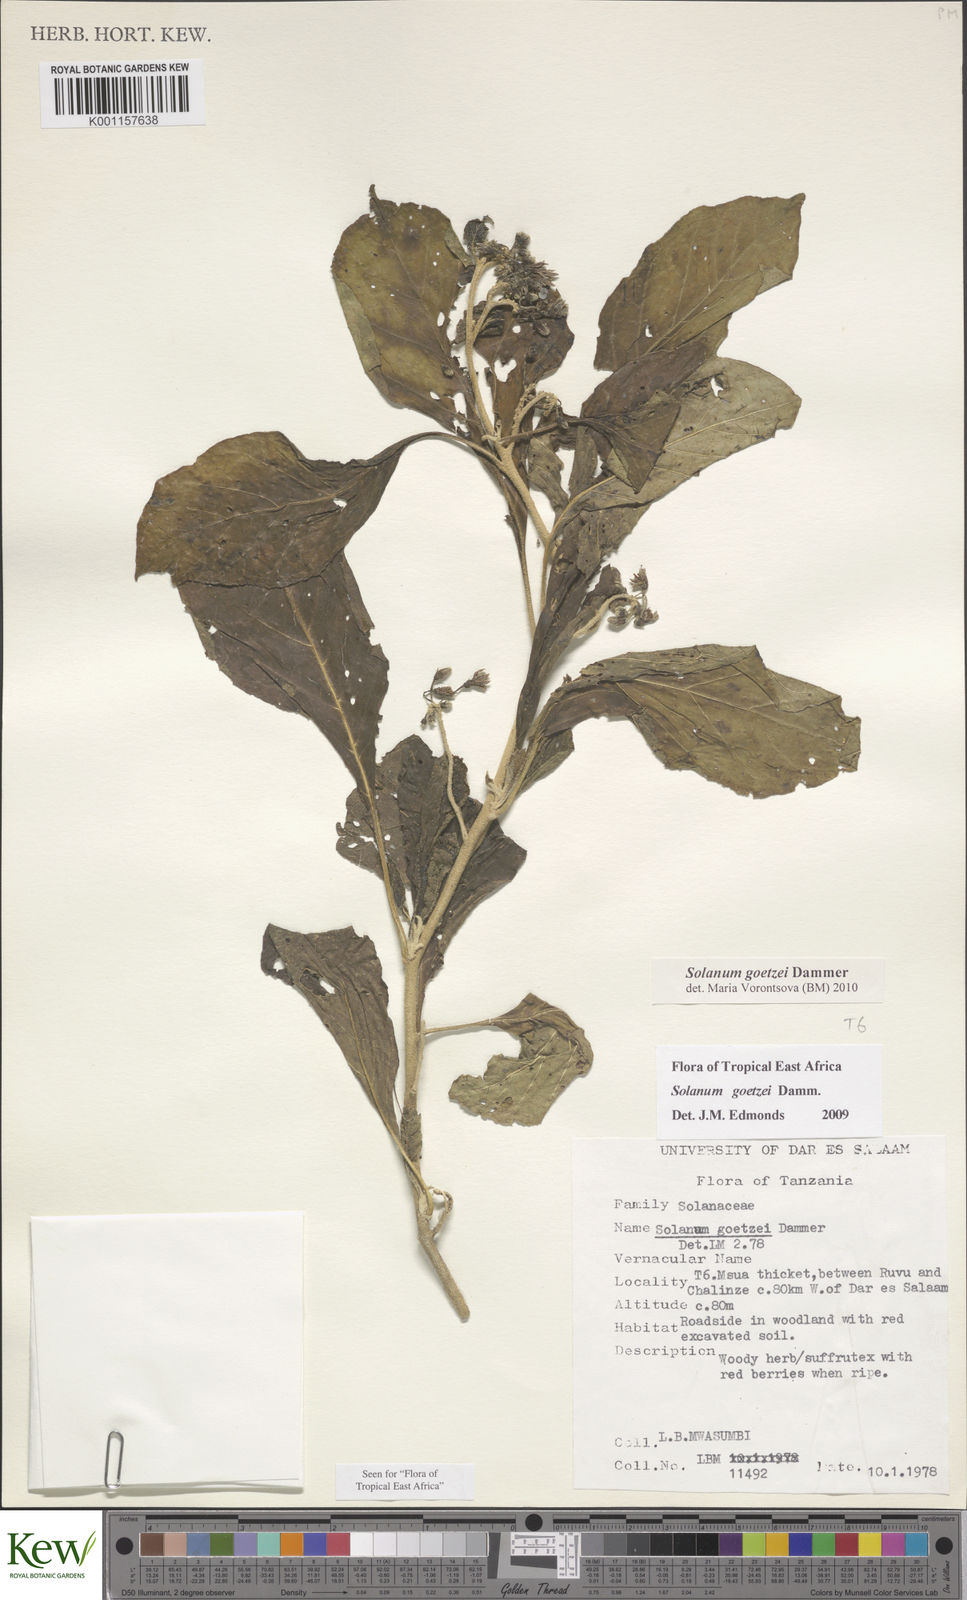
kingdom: Plantae
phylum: Tracheophyta
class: Magnoliopsida
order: Solanales
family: Solanaceae
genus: Solanum
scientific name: Solanum goetzei
